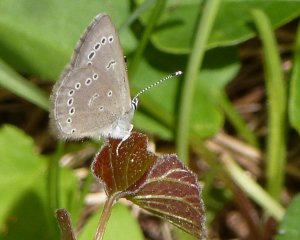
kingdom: Animalia
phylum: Arthropoda
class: Insecta
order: Lepidoptera
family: Lycaenidae
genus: Glaucopsyche
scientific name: Glaucopsyche lygdamus
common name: Silvery Blue
